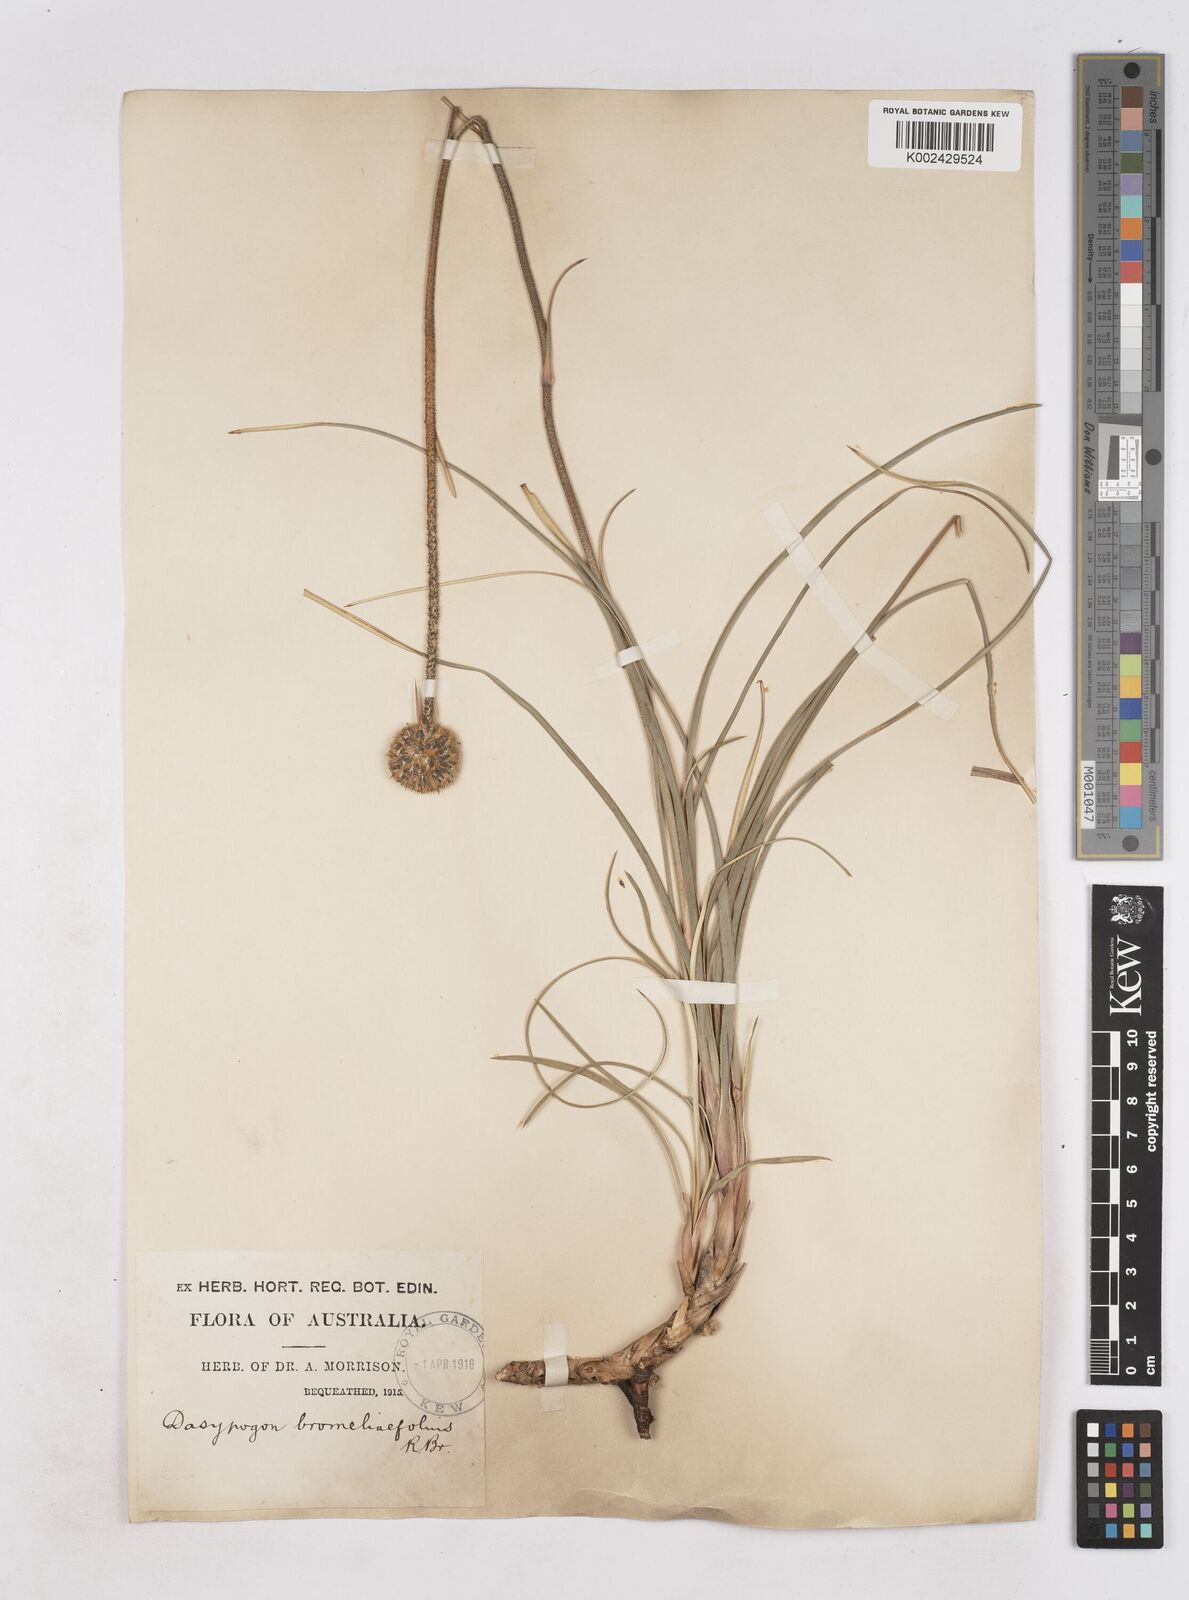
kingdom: Plantae
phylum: Tracheophyta
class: Liliopsida
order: Arecales
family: Dasypogonaceae
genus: Dasypogon
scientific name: Dasypogon bromeliifolius
